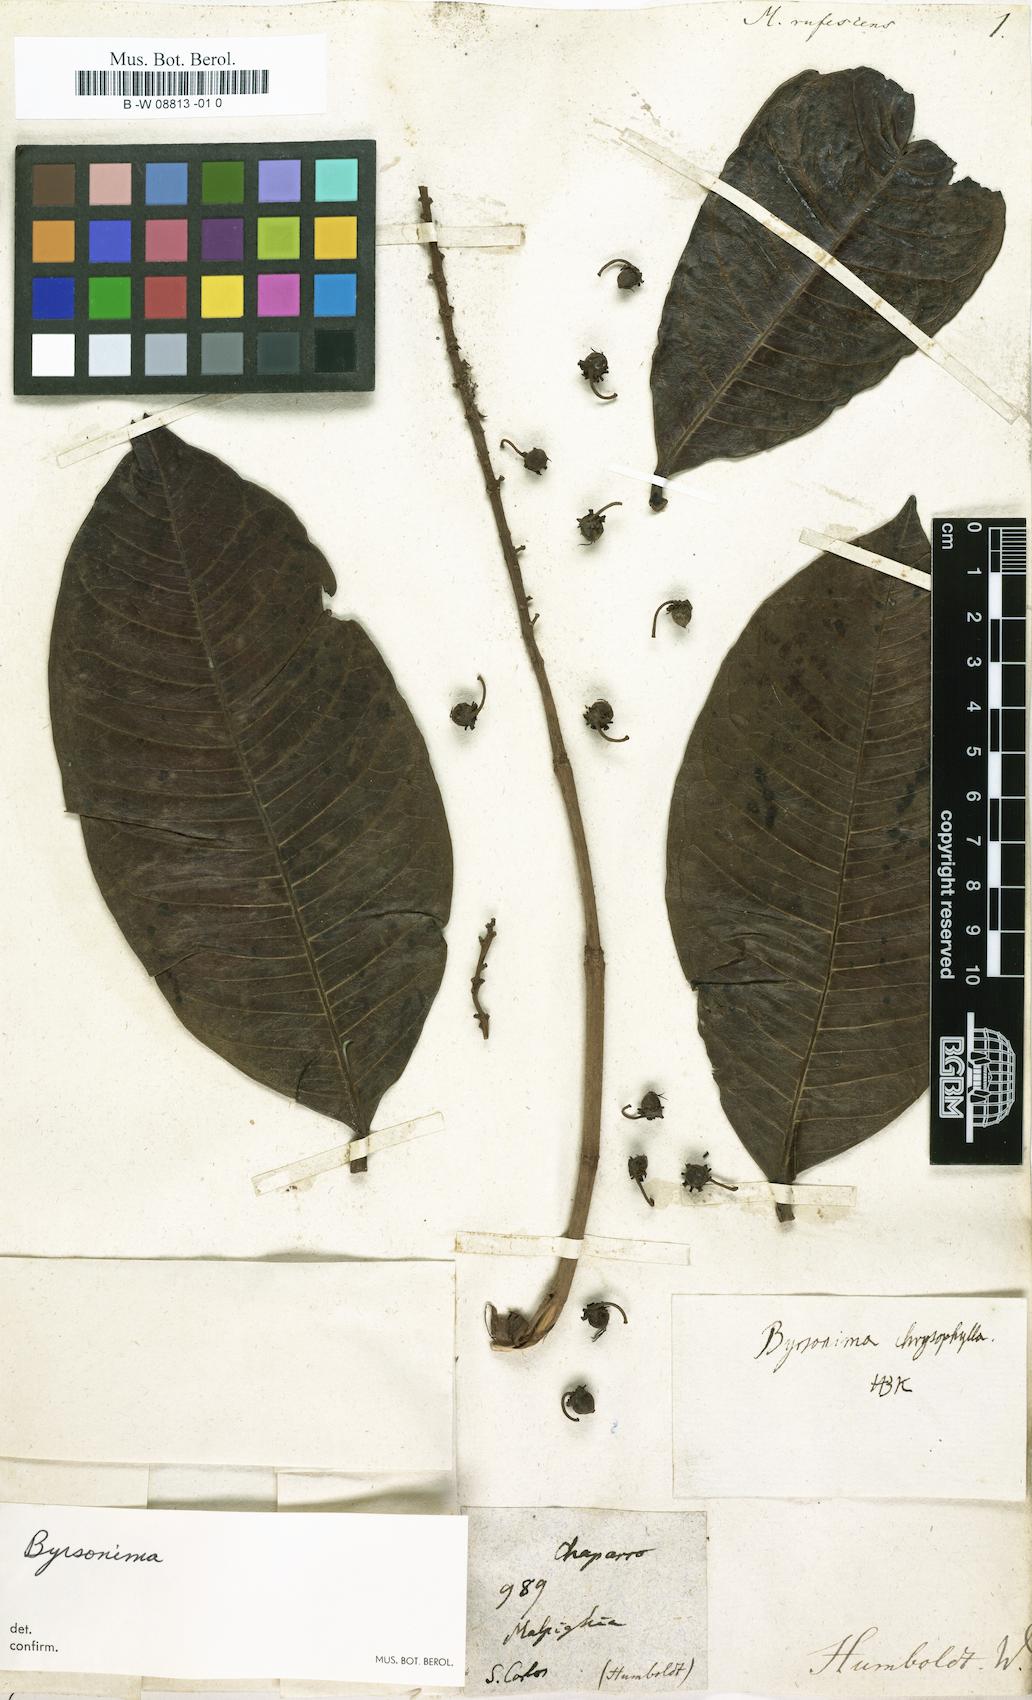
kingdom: Plantae
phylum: Tracheophyta
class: Magnoliopsida
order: Malpighiales
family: Malpighiaceae
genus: Malpighia
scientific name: Malpighia
